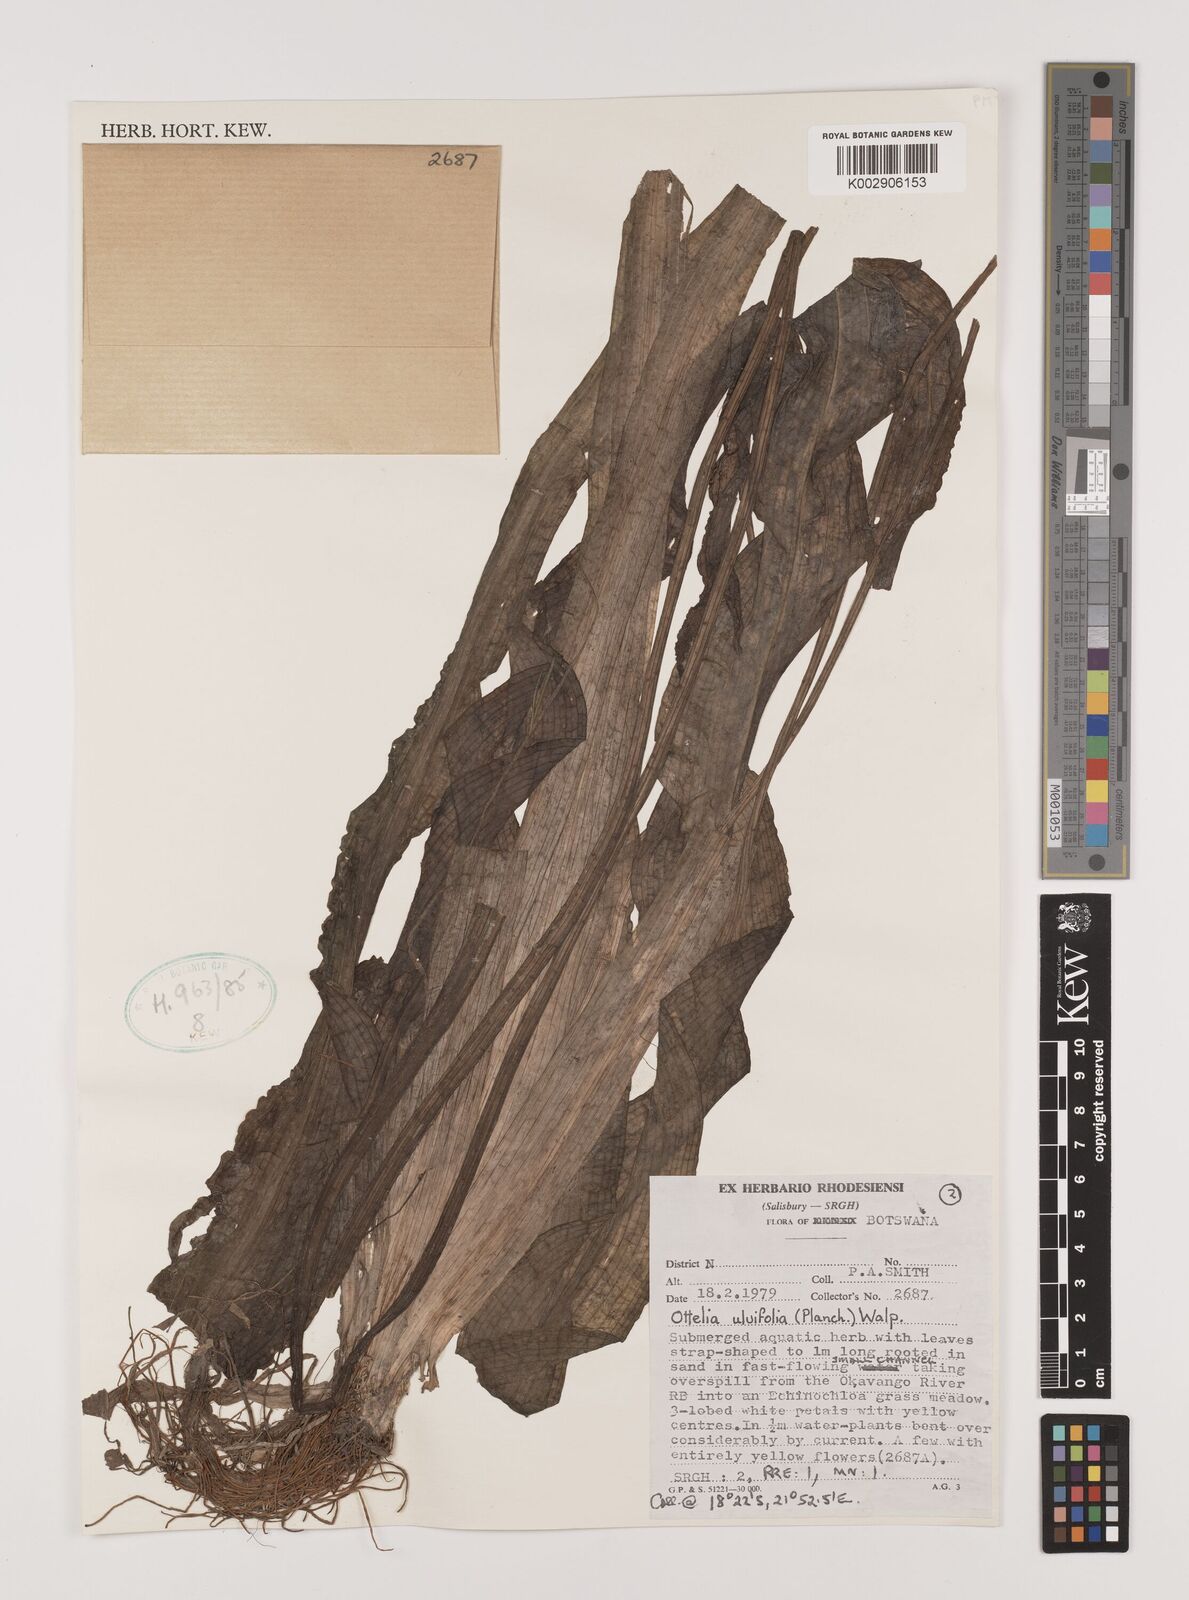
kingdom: Plantae
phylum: Tracheophyta
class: Liliopsida
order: Alismatales
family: Hydrocharitaceae
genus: Ottelia
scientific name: Ottelia ulvifolia
